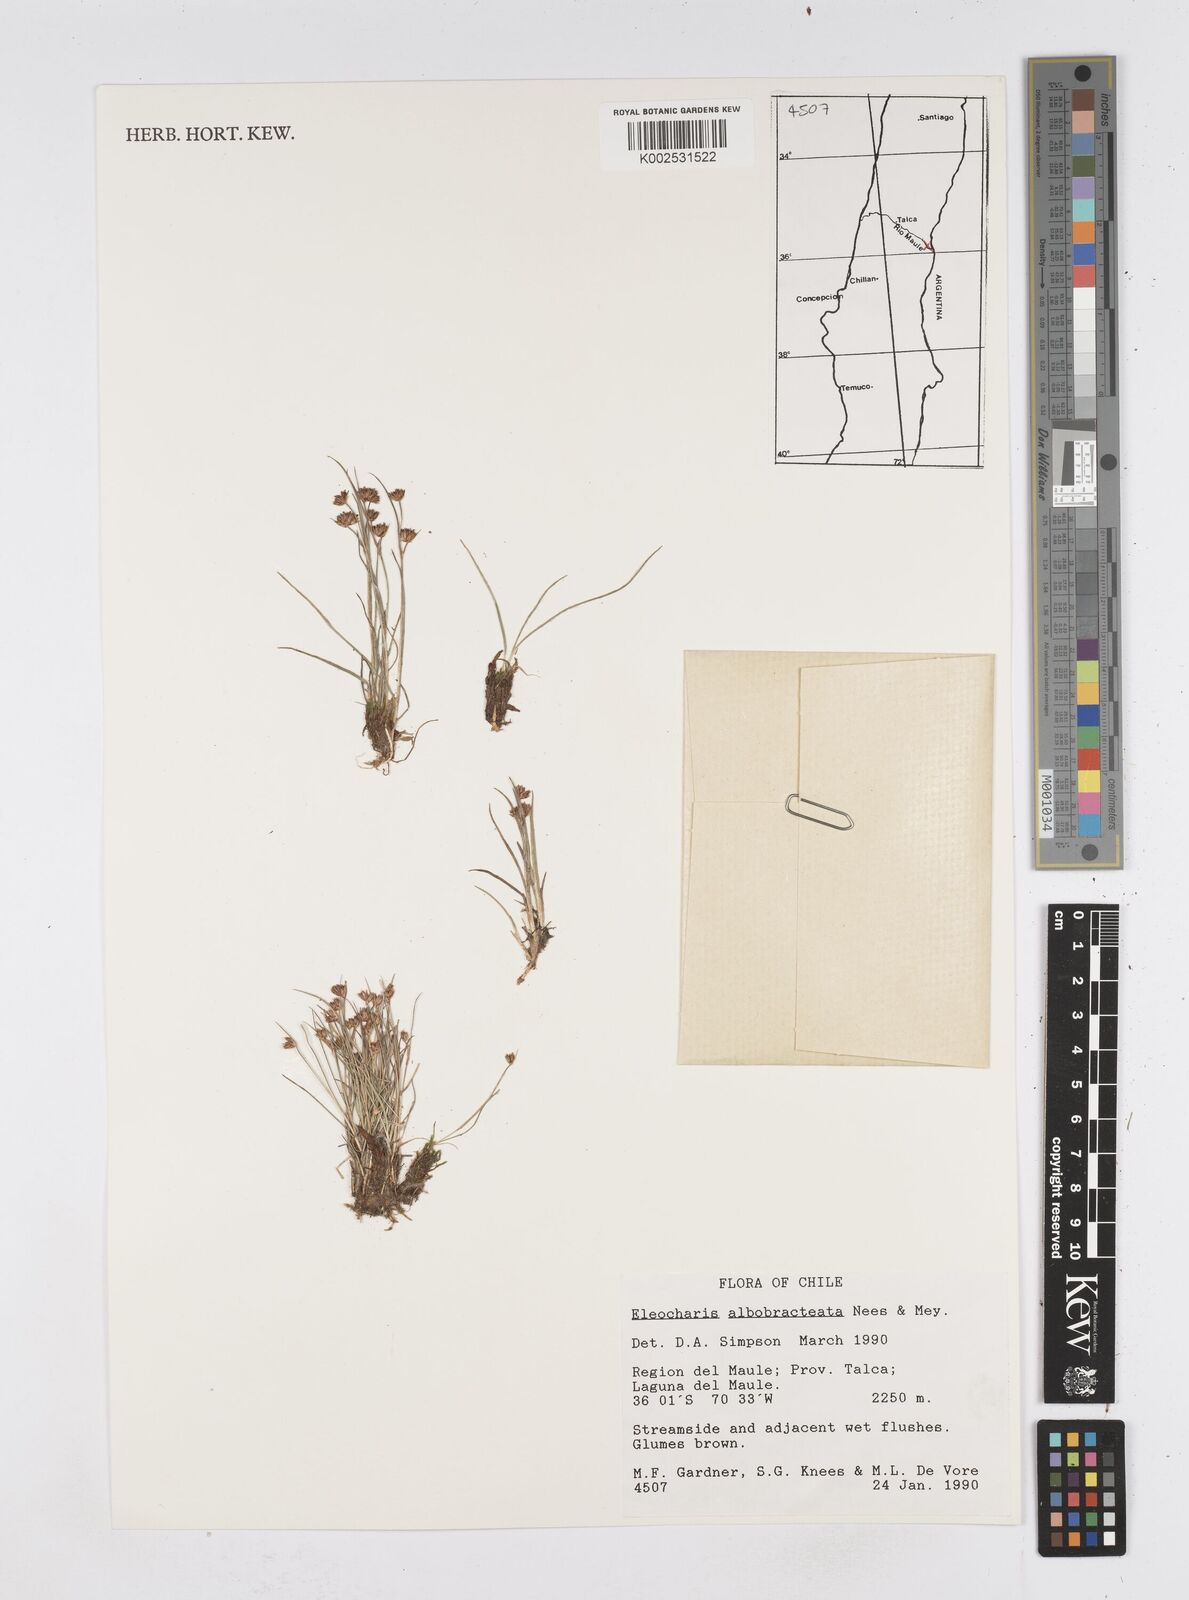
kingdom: Plantae
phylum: Tracheophyta
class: Liliopsida
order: Poales
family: Cyperaceae
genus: Eleocharis
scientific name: Eleocharis albibracteata
